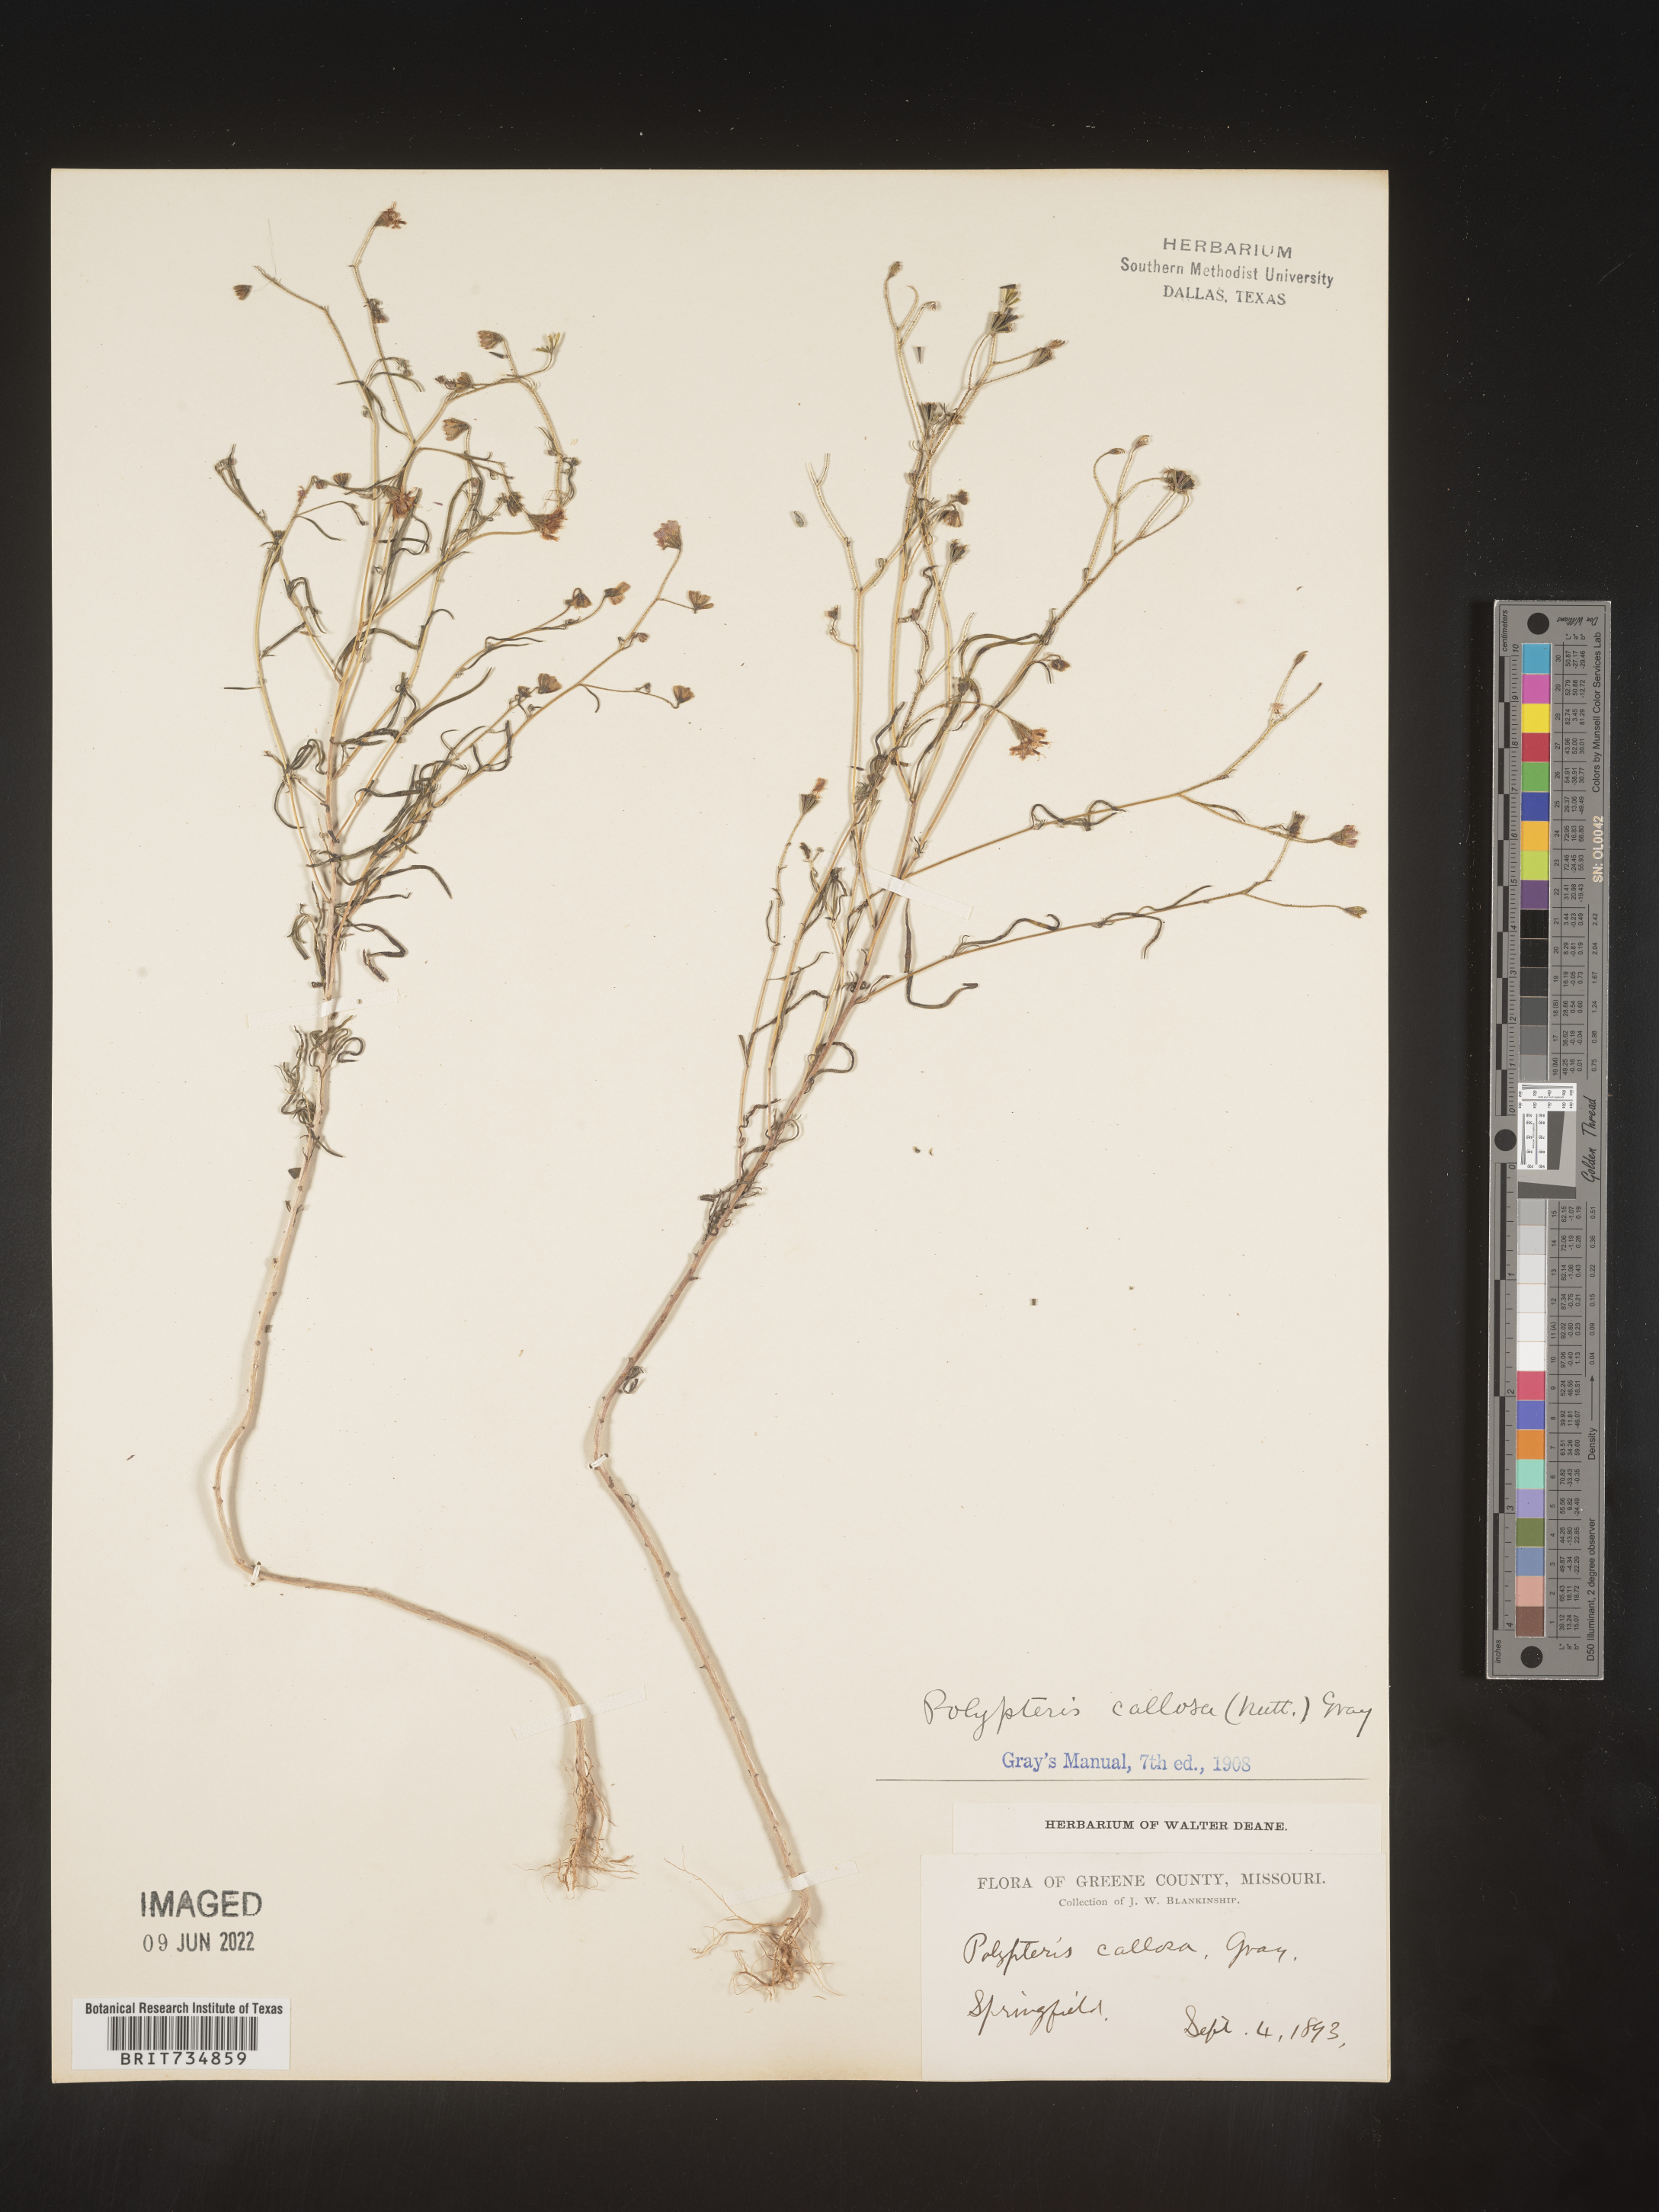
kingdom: Plantae
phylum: Tracheophyta
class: Magnoliopsida
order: Asterales
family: Asteraceae
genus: Palafoxia
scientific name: Palafoxia callosa
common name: Small palafox
